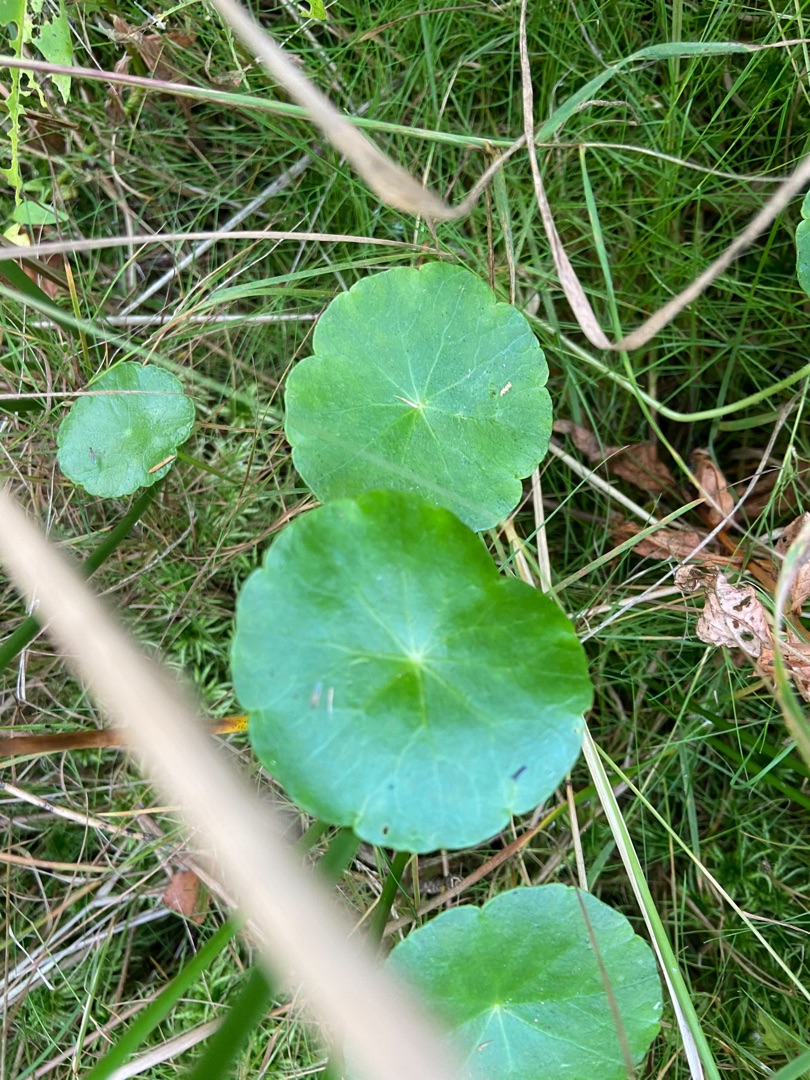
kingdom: Plantae
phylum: Tracheophyta
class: Magnoliopsida
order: Apiales
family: Araliaceae
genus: Hydrocotyle
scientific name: Hydrocotyle vulgaris
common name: Vandnavle
